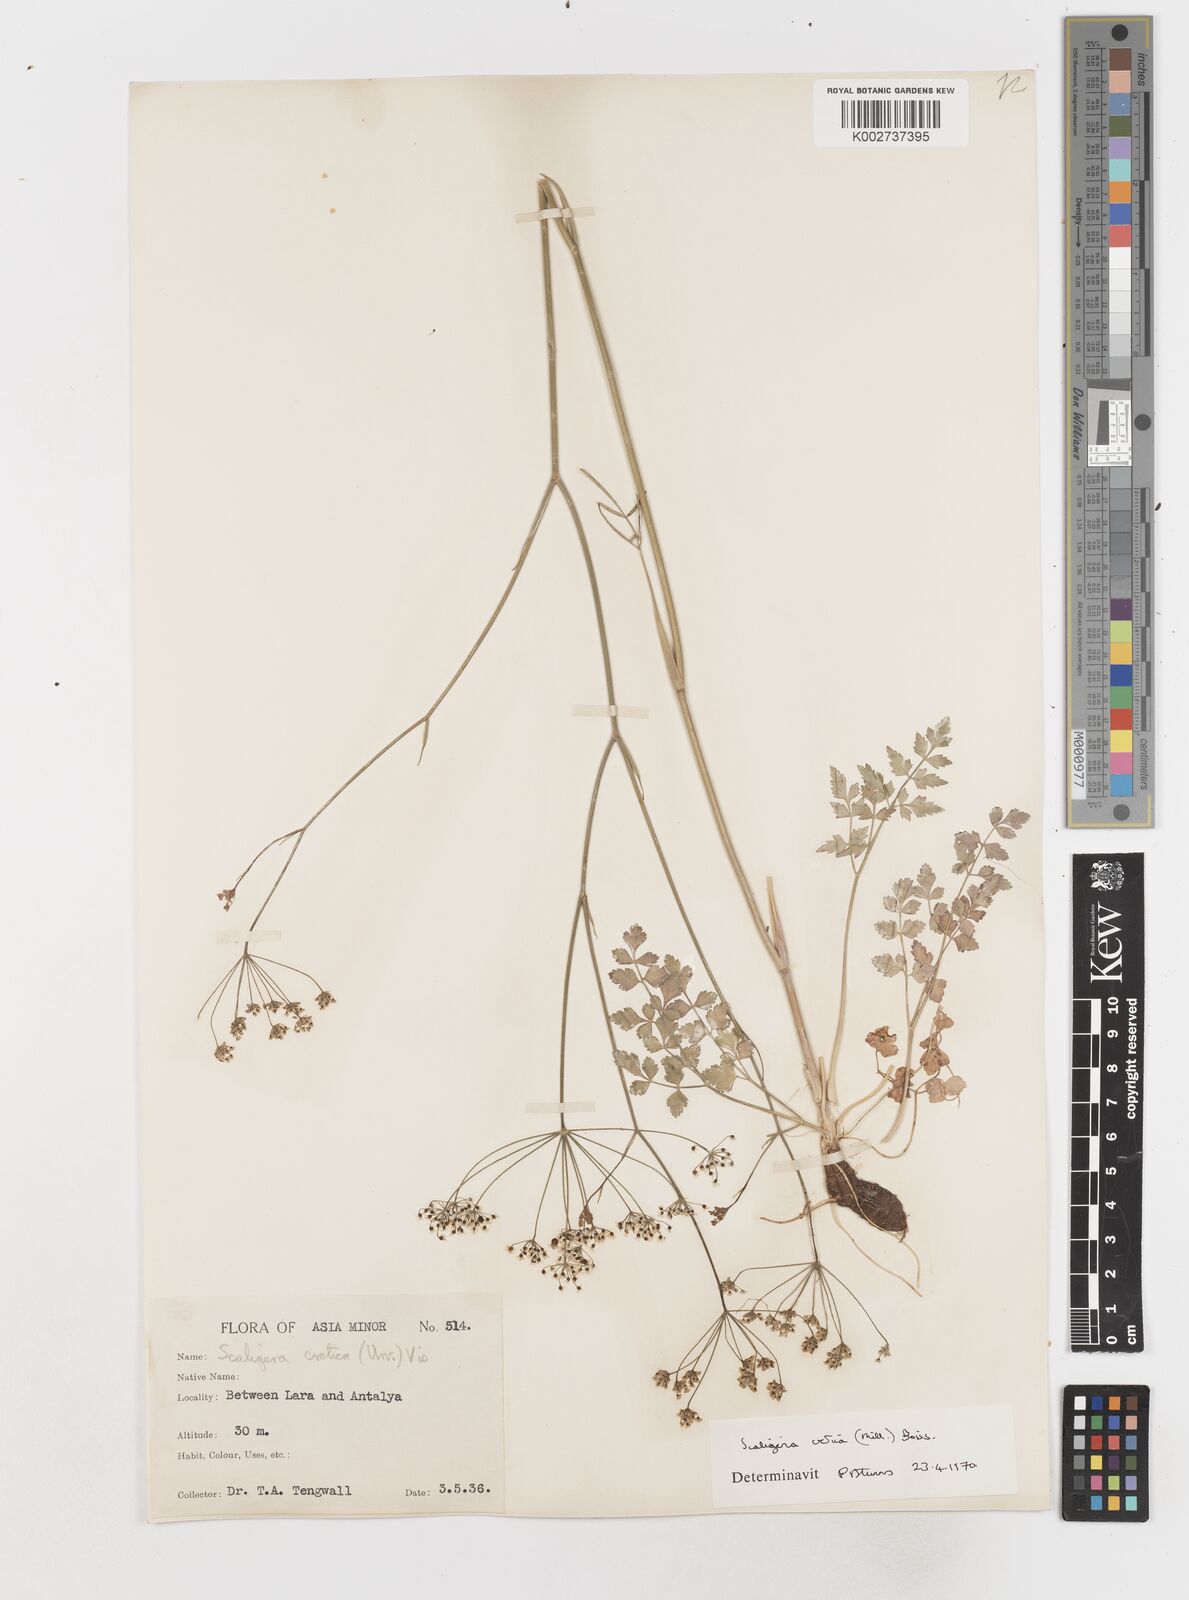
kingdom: Plantae
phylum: Tracheophyta
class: Magnoliopsida
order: Apiales
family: Apiaceae
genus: Scaligeria
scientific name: Scaligeria
